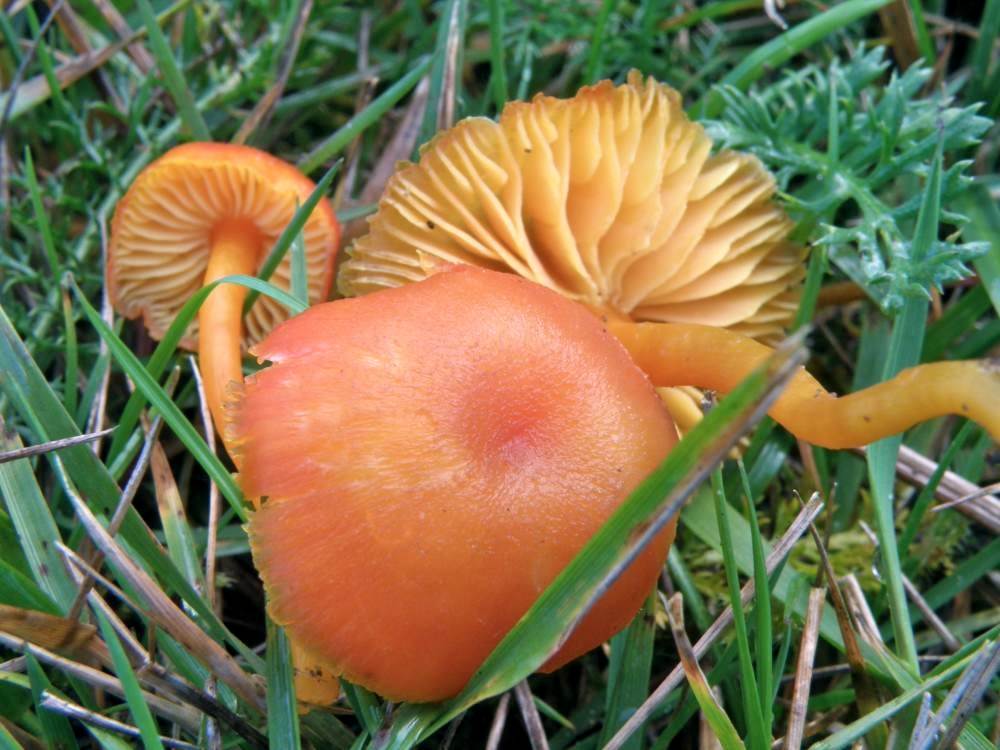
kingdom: Fungi
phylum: Basidiomycota
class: Agaricomycetes
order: Agaricales
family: Hygrophoraceae
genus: Hygrocybe
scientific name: Hygrocybe miniata
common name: mønje-vokshat
